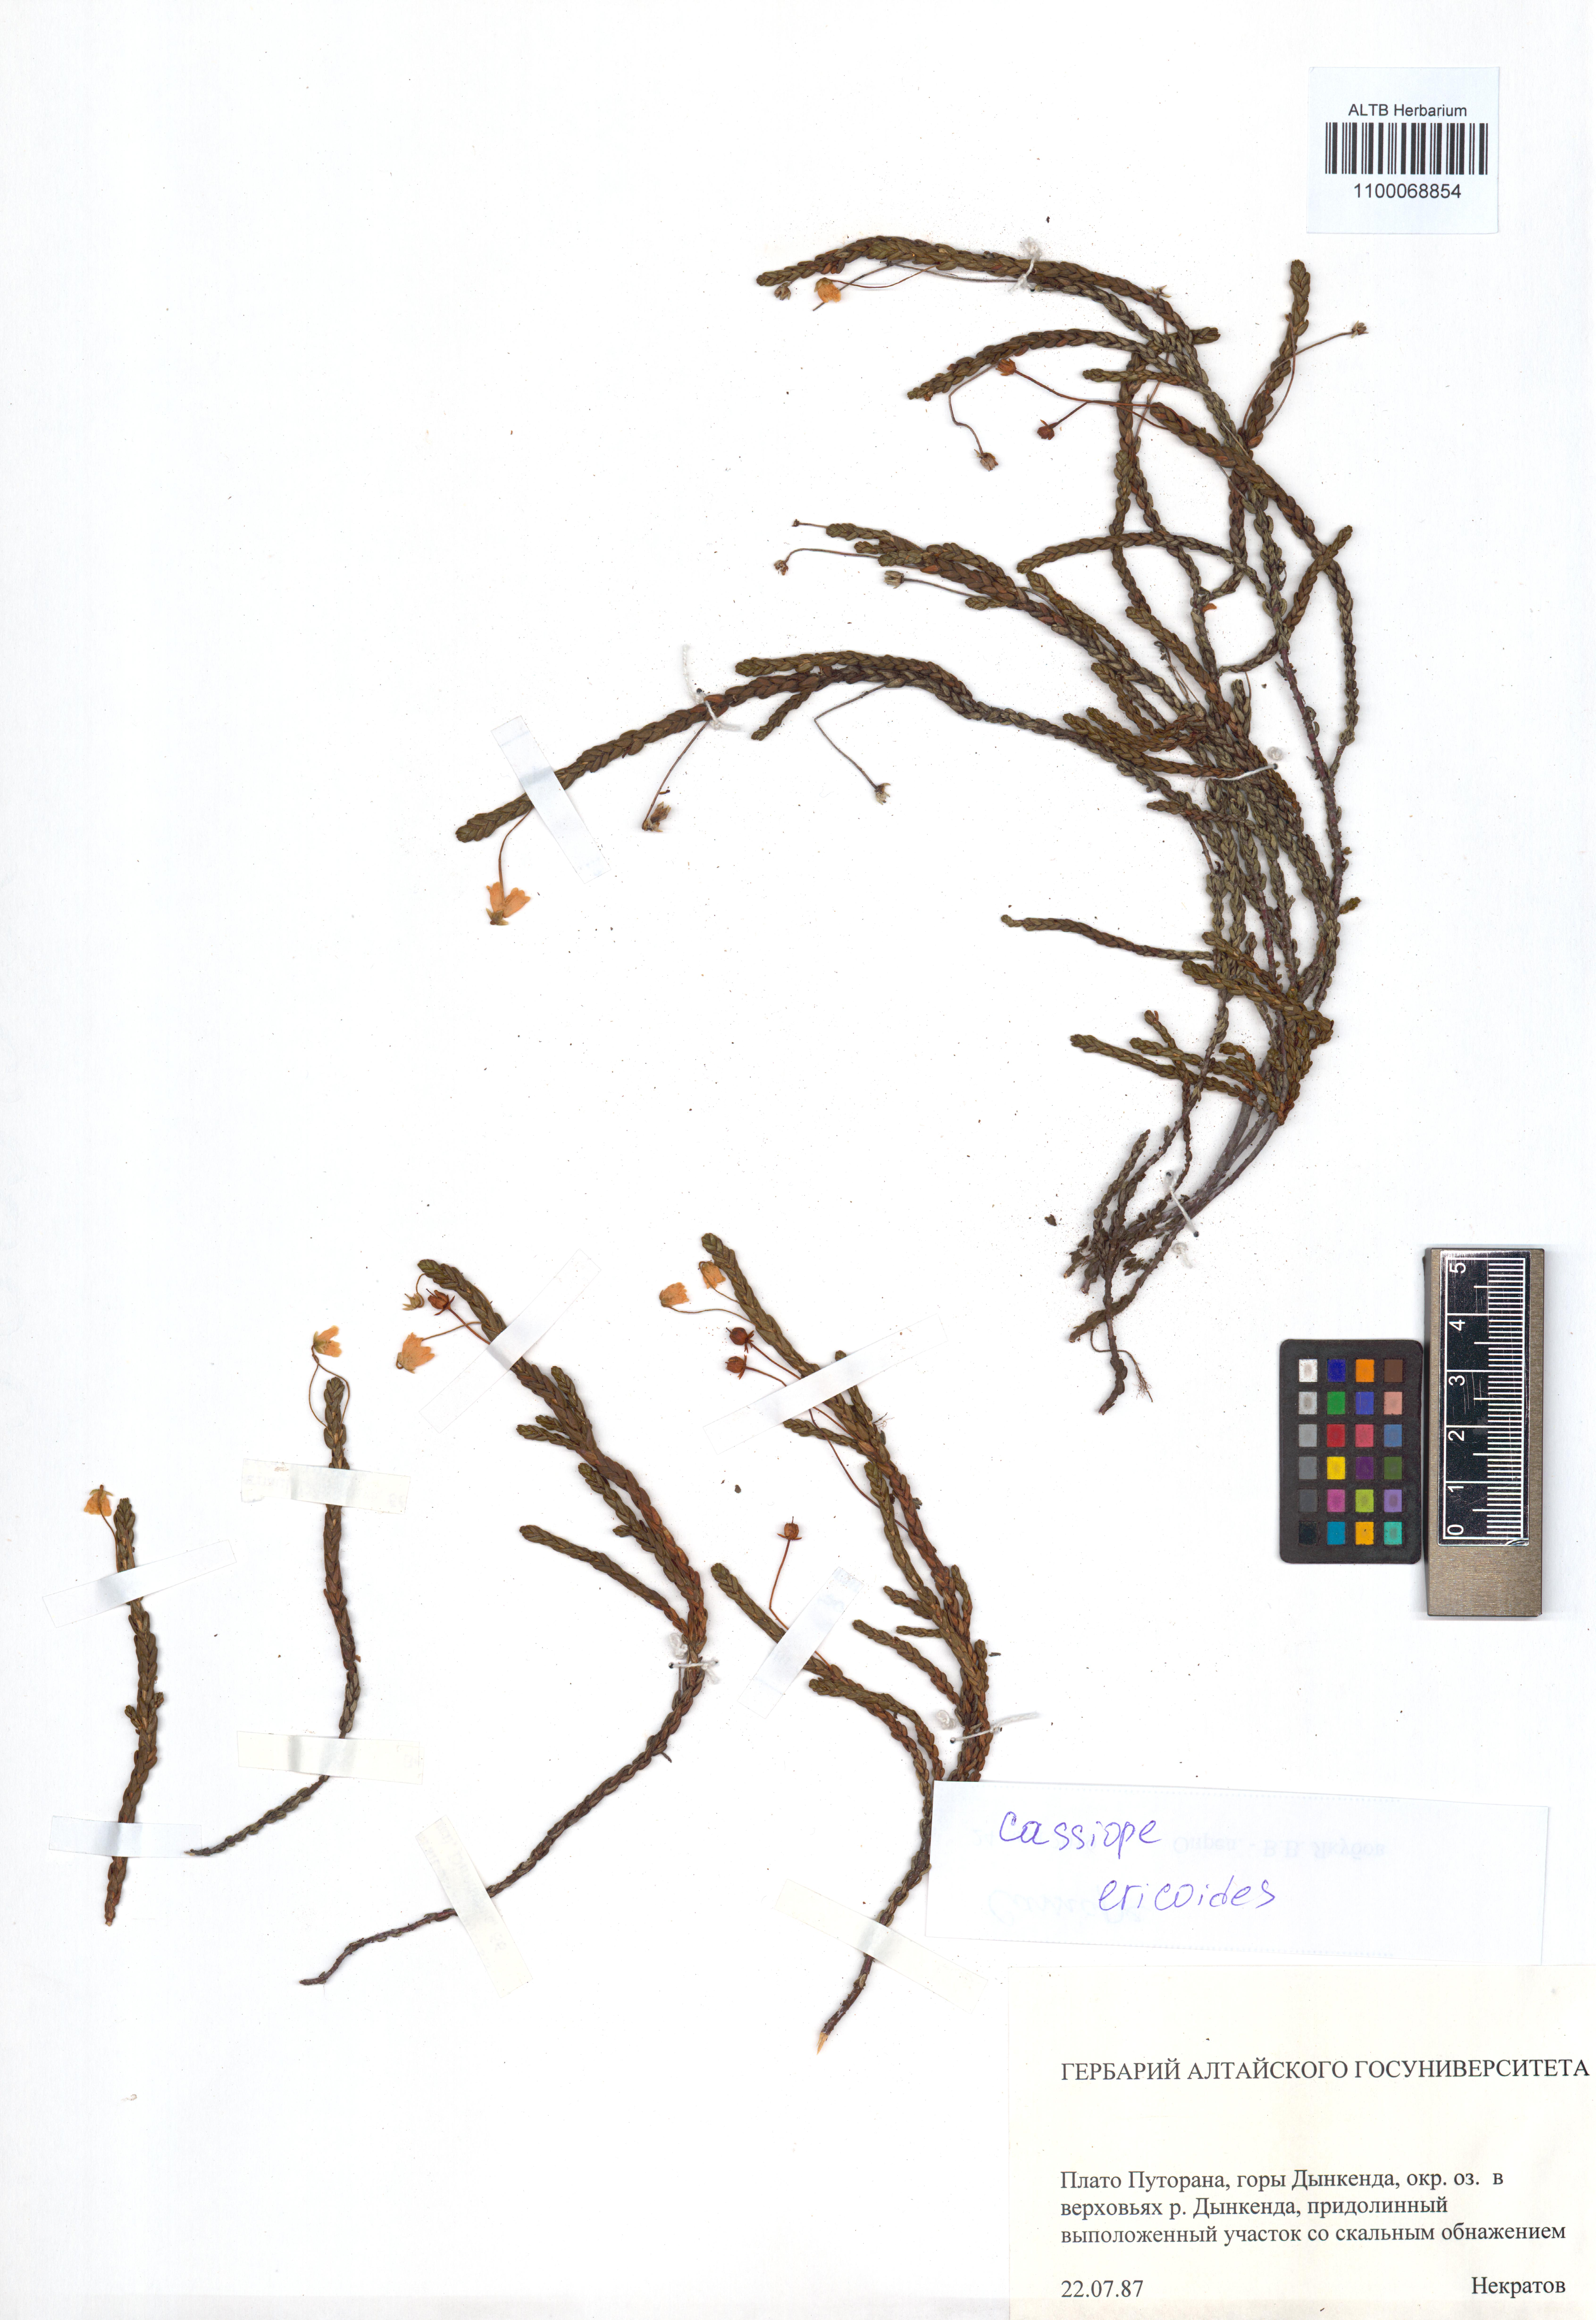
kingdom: Plantae
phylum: Tracheophyta
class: Magnoliopsida
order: Ericales
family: Ericaceae
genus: Cassiope
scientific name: Cassiope ericoides
